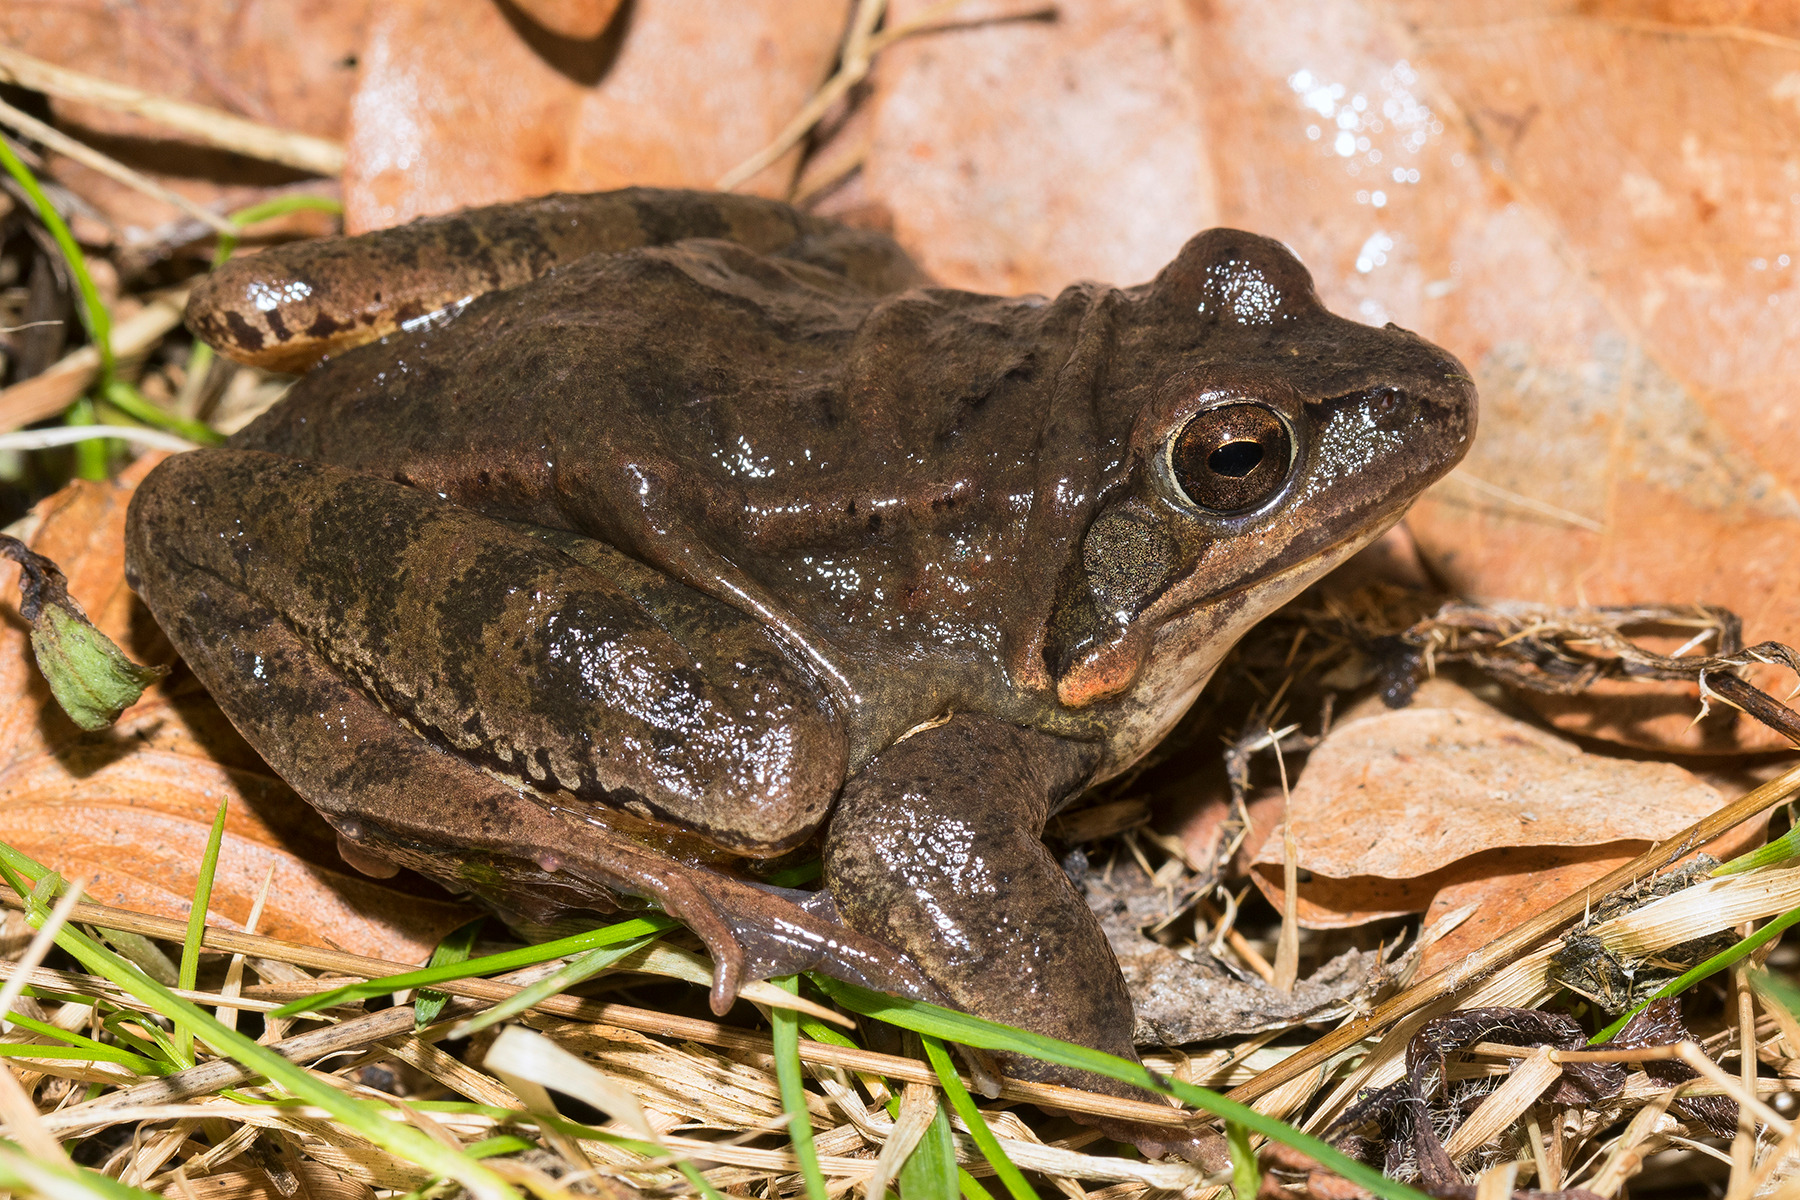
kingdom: Animalia
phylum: Chordata
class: Amphibia
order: Anura
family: Ranidae
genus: Rana
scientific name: Rana dalmatina
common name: Springfrø
